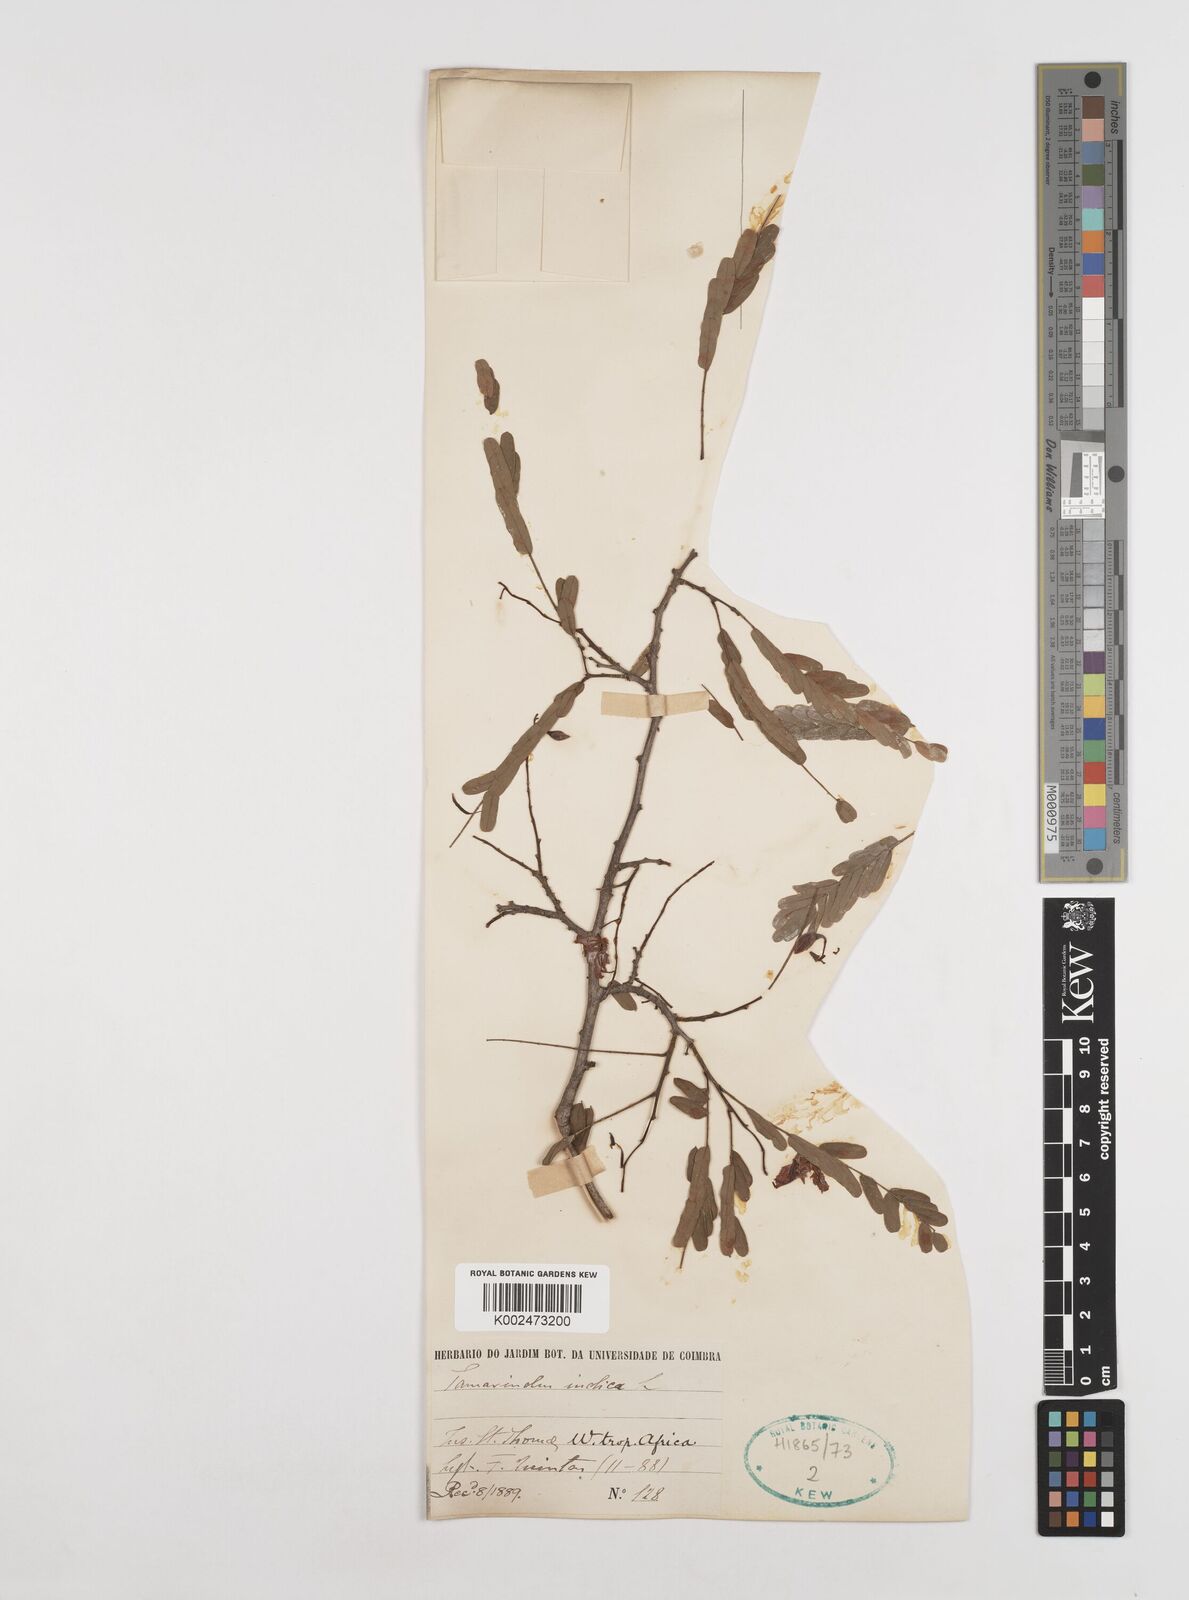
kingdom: Plantae
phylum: Tracheophyta
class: Magnoliopsida
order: Fabales
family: Fabaceae
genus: Tamarindus
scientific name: Tamarindus indica
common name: Tamarind
